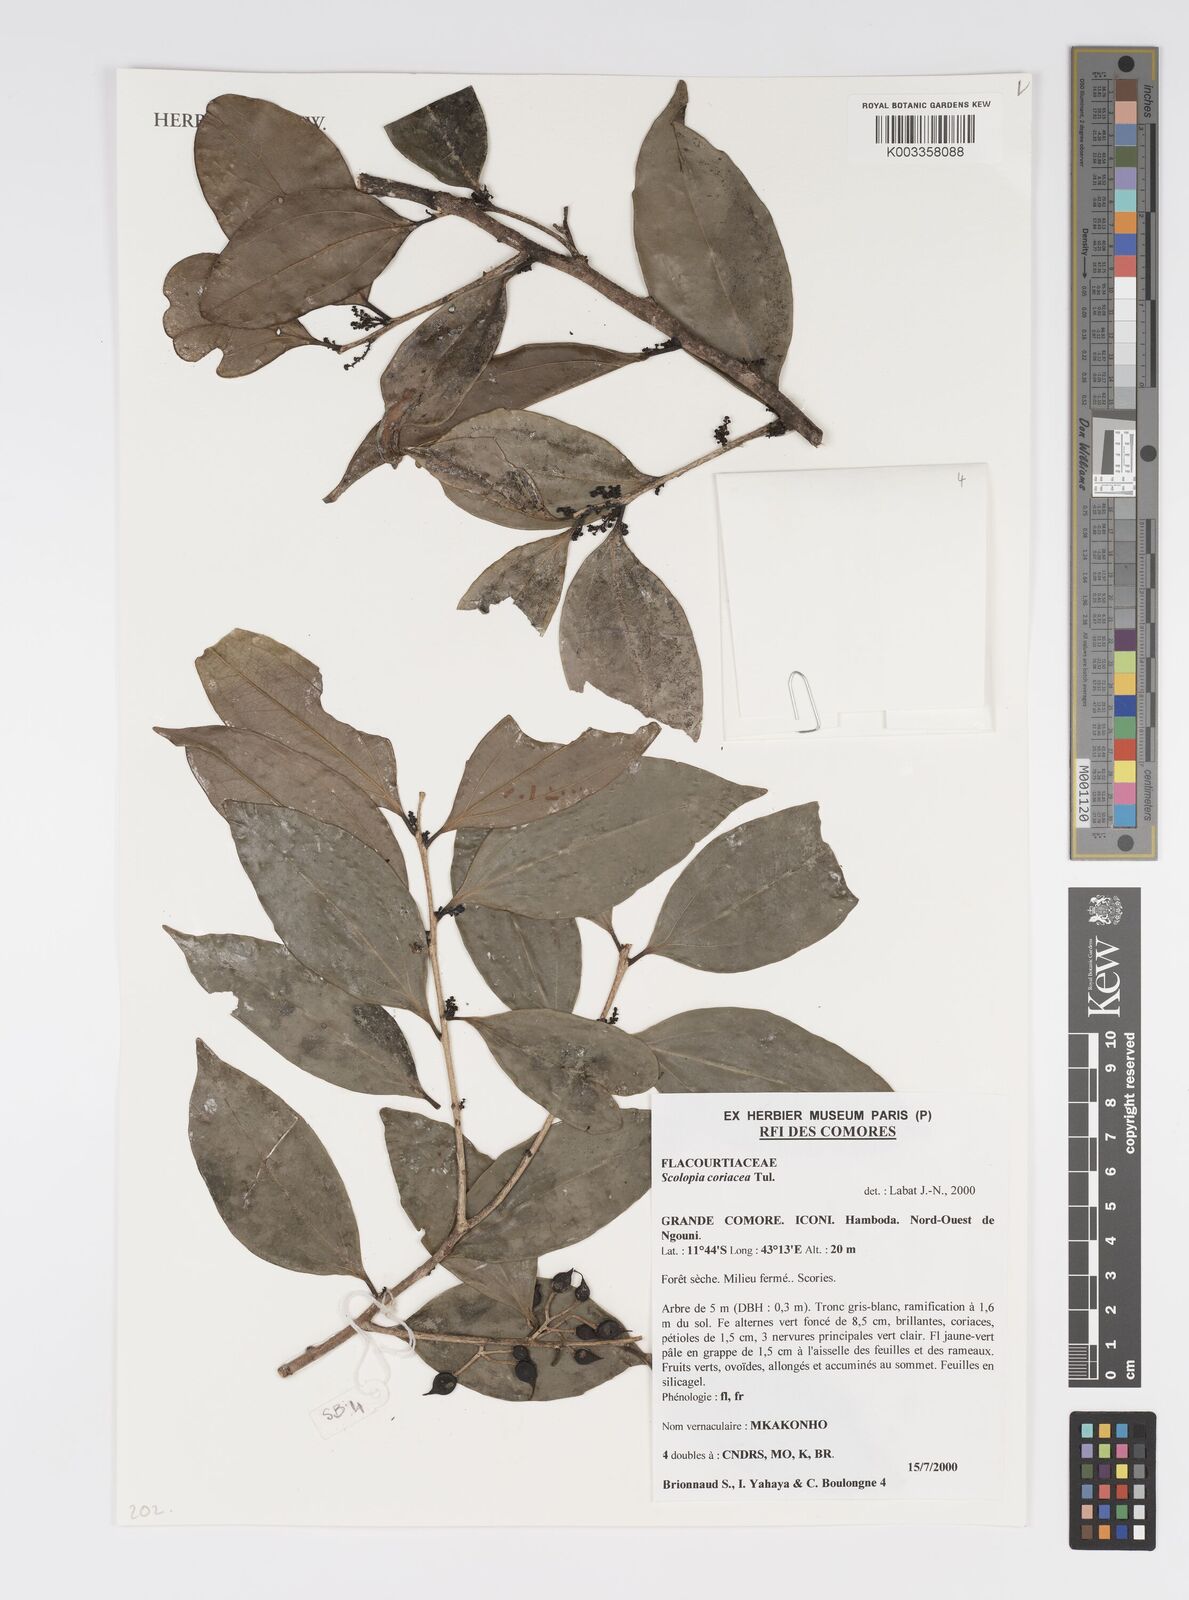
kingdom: Plantae
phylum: Tracheophyta
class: Magnoliopsida
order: Malpighiales
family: Salicaceae
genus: Scolopia
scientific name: Scolopia coriacea
